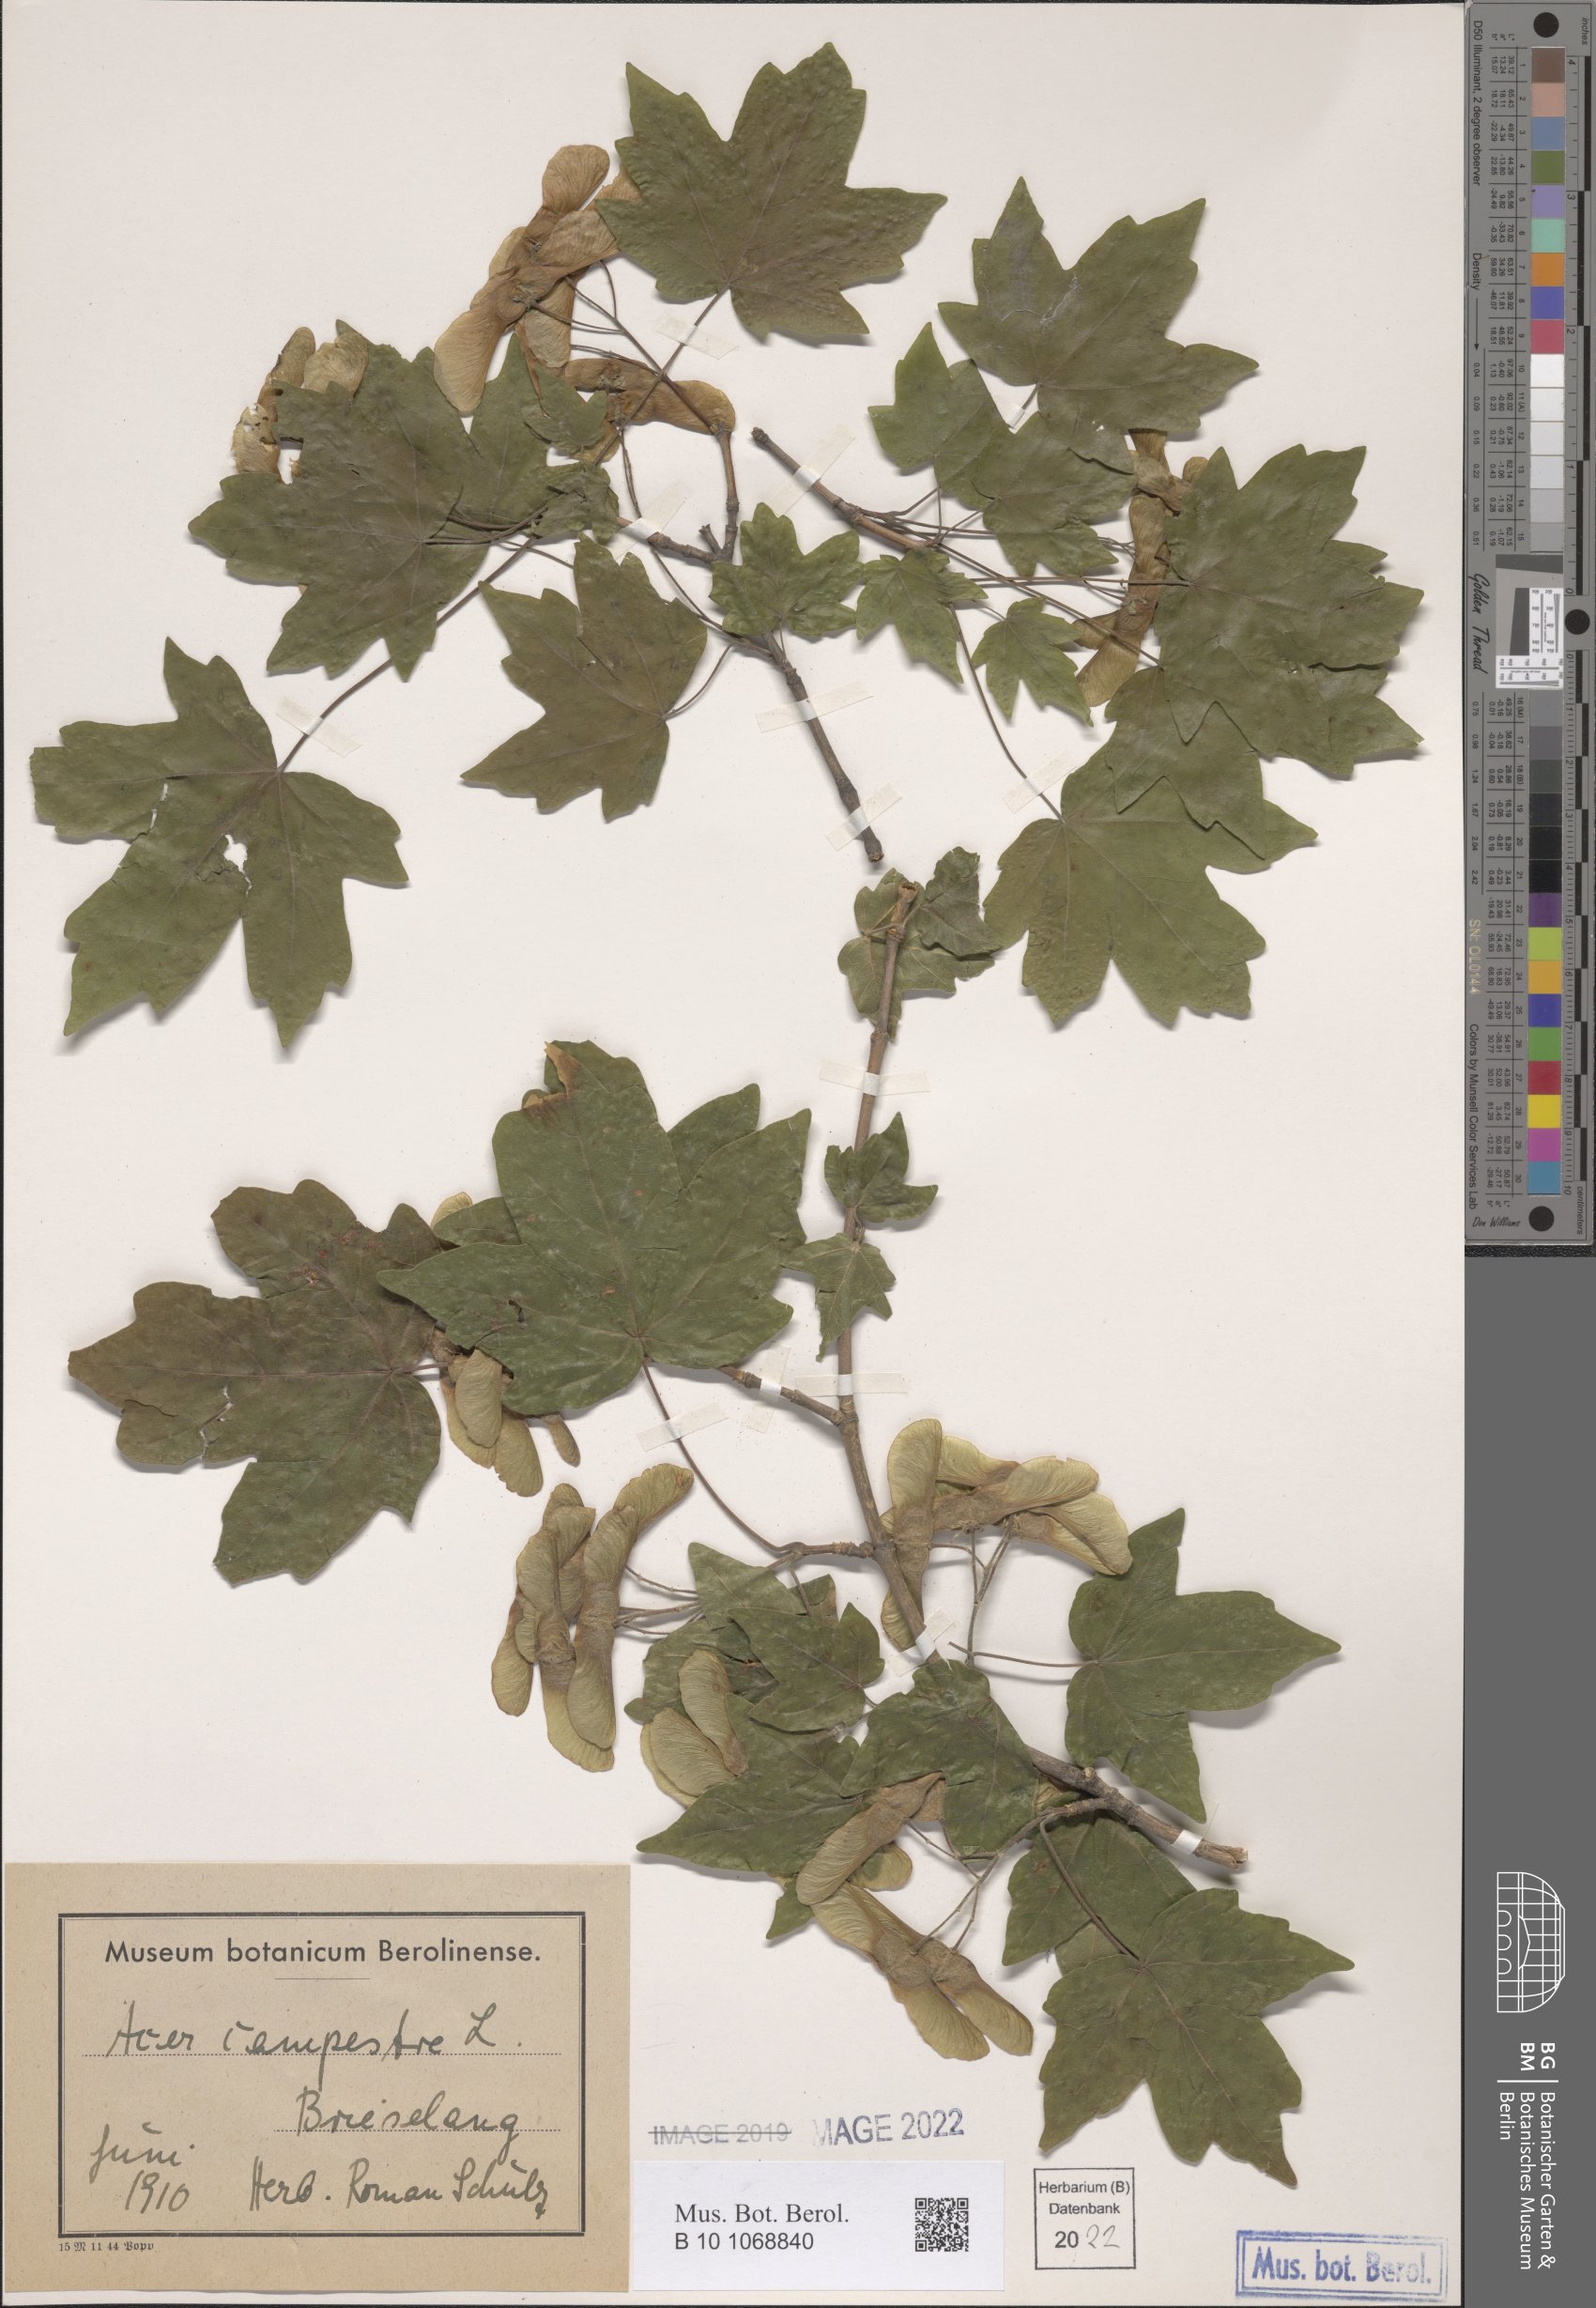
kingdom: Plantae
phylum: Tracheophyta
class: Magnoliopsida
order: Sapindales
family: Sapindaceae
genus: Acer
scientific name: Acer campestre
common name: Field maple
